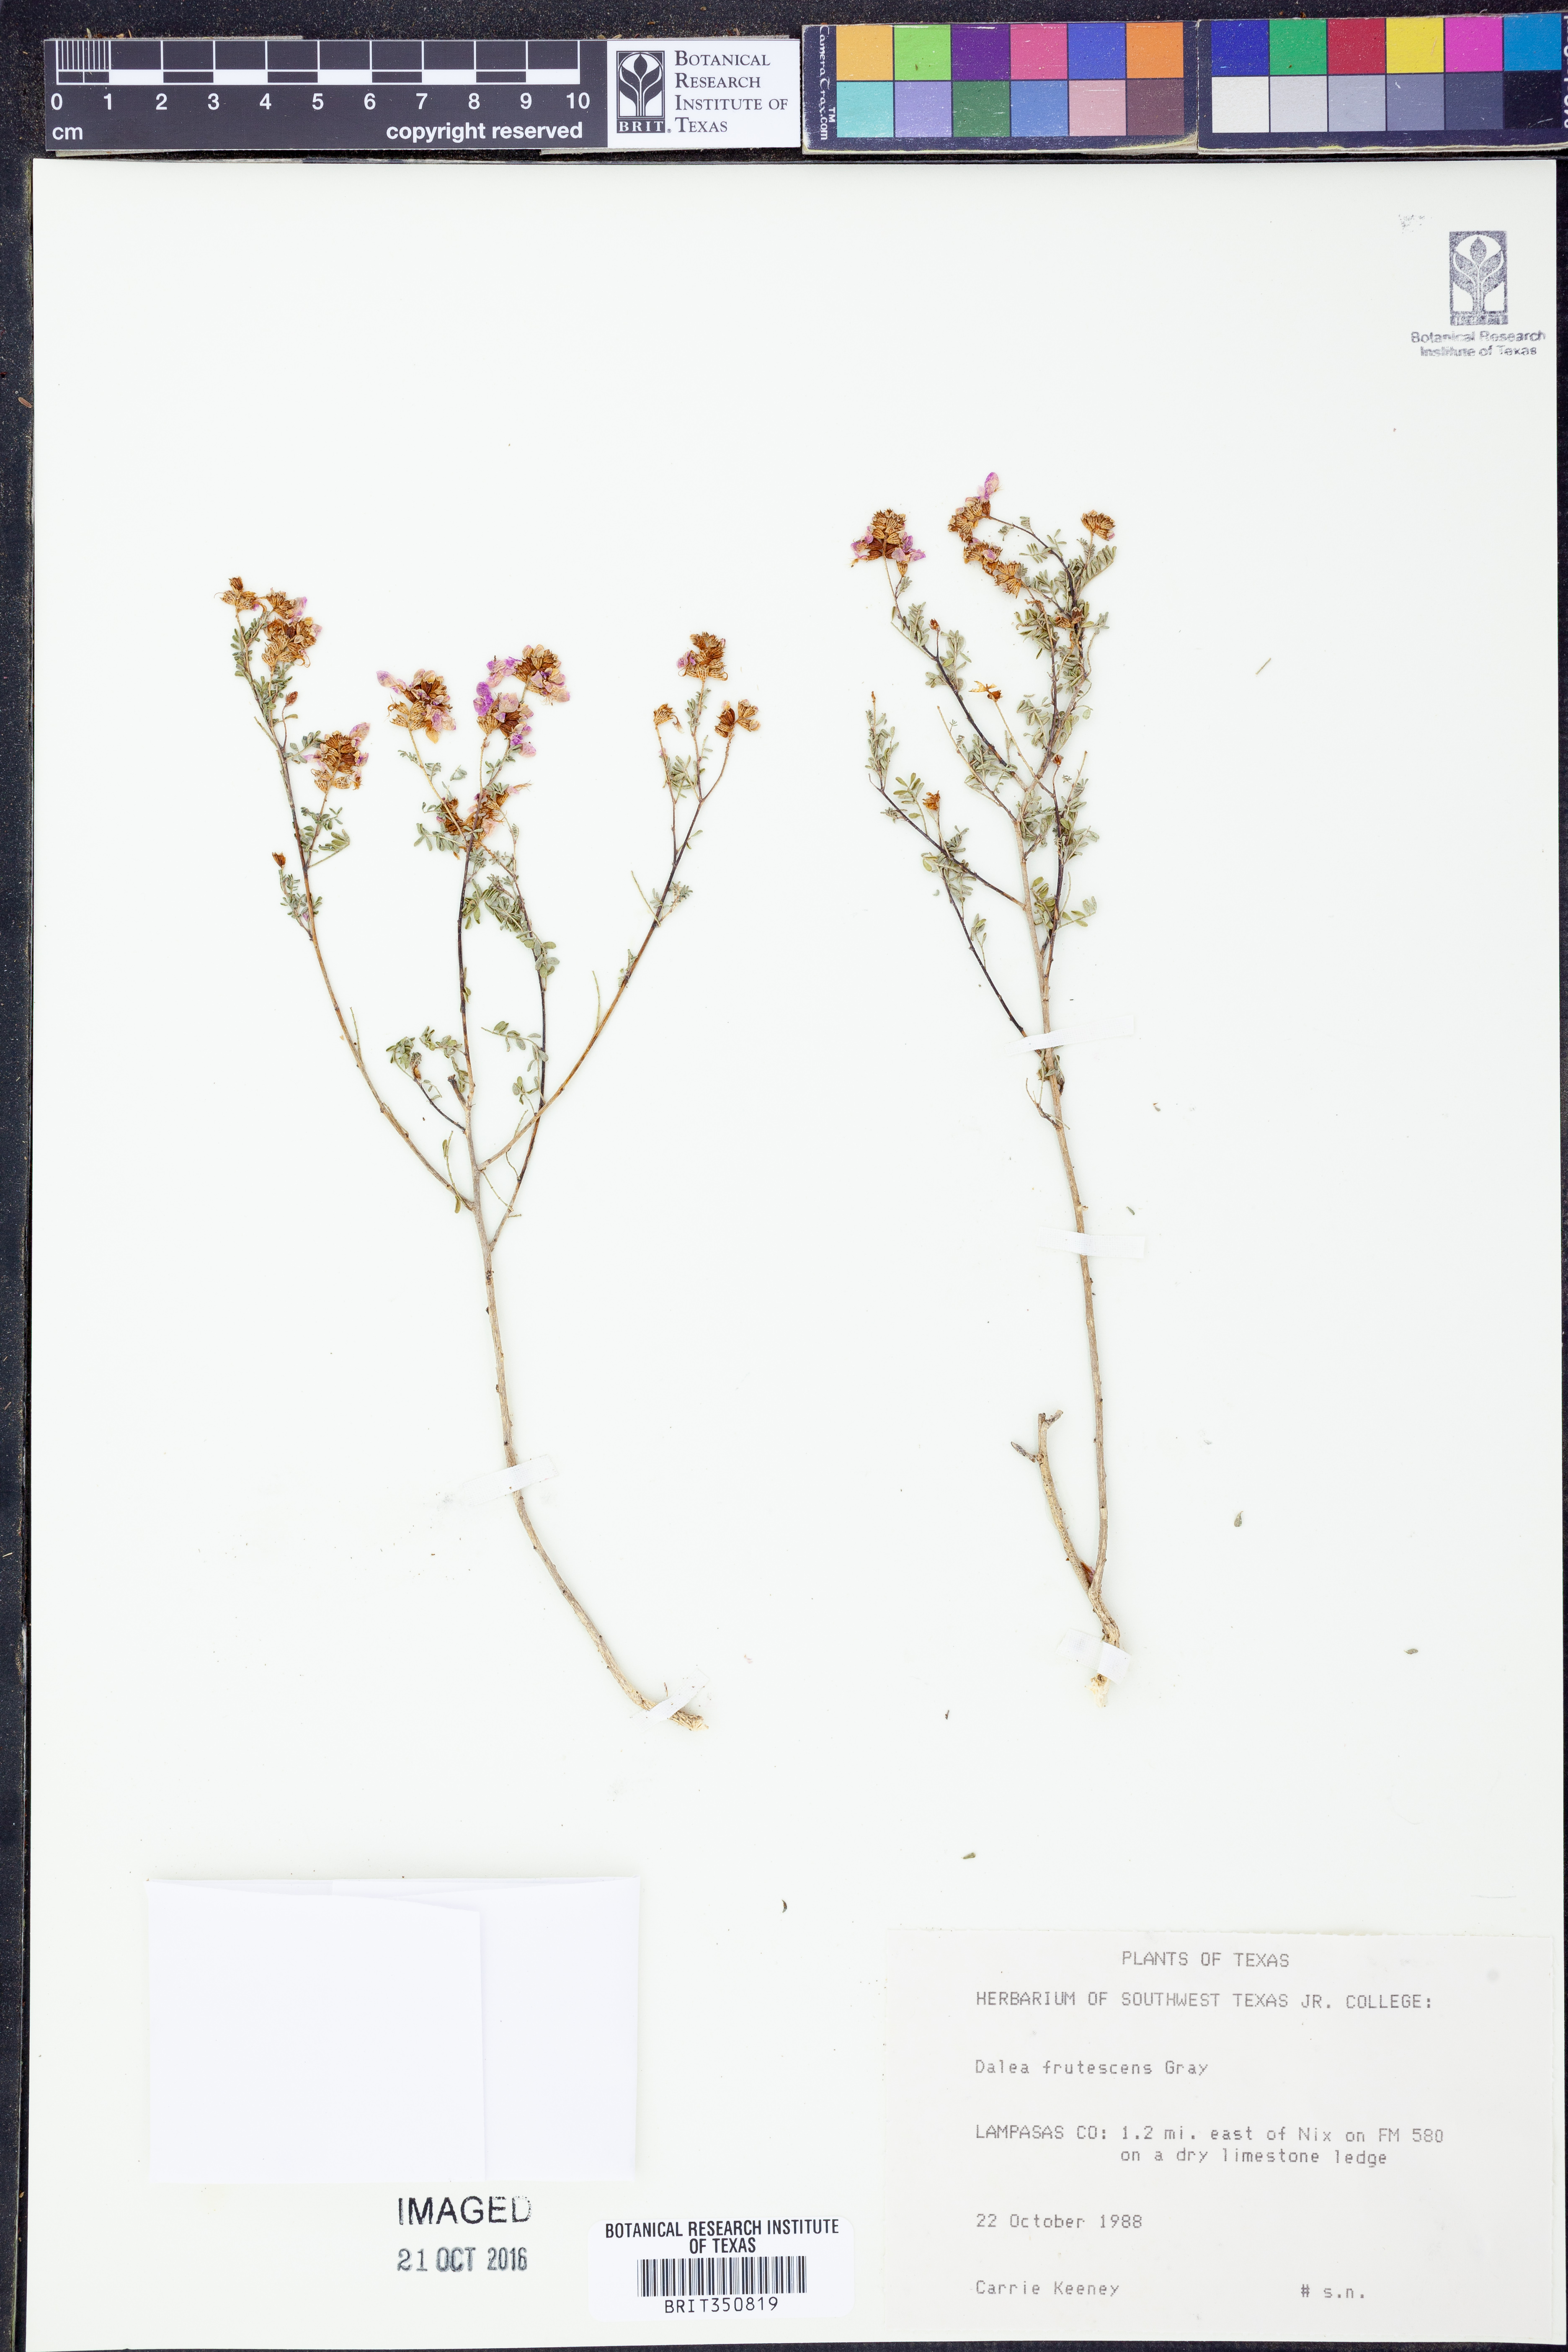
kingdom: Plantae
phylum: Tracheophyta
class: Magnoliopsida
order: Fabales
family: Fabaceae
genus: Dalea
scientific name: Dalea frutescens
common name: Black dalea
